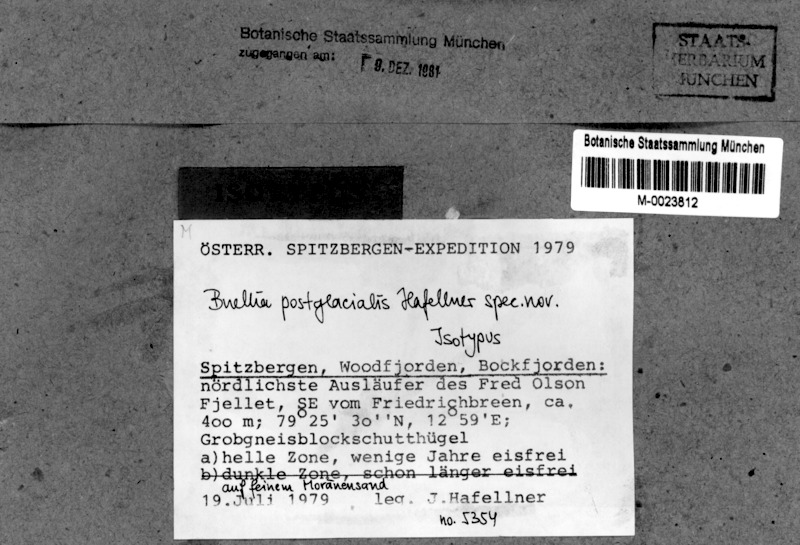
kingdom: Fungi
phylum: Ascomycota
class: Lecanoromycetes
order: Caliciales
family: Caliciaceae
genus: Buellia
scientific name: Buellia postglacialis
